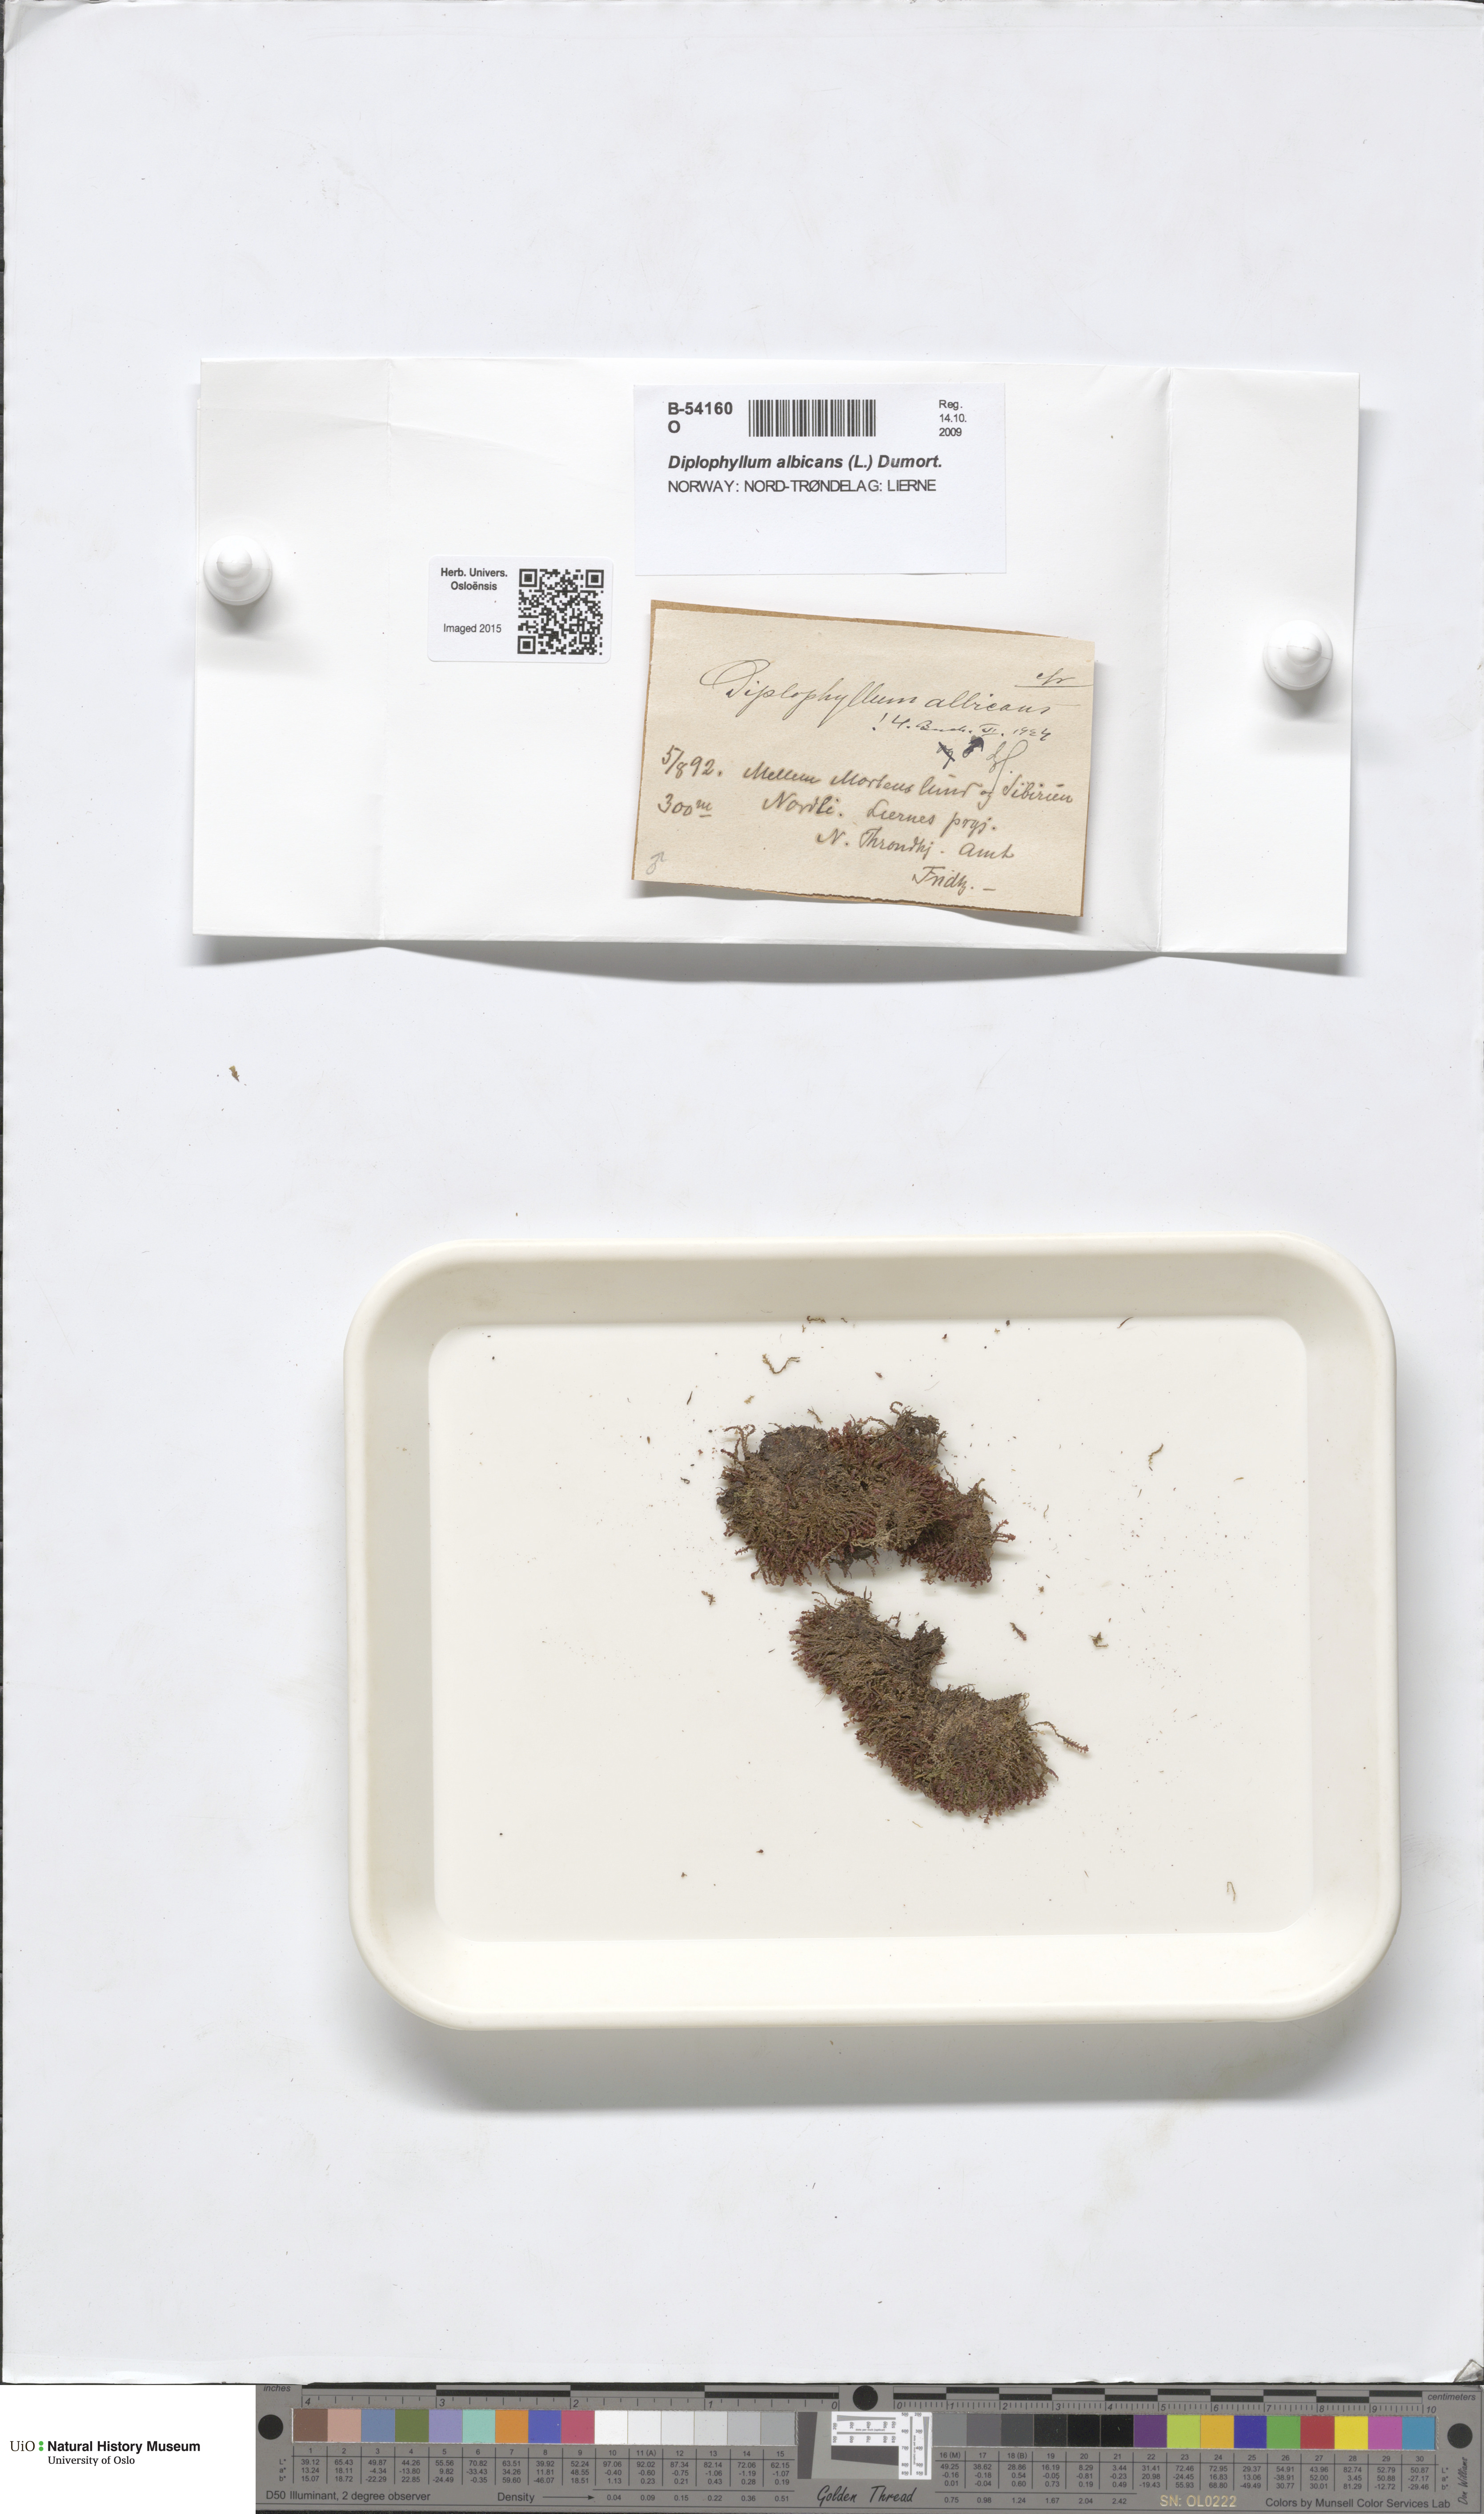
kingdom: Plantae
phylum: Marchantiophyta
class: Jungermanniopsida
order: Jungermanniales
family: Scapaniaceae
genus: Diplophyllum
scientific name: Diplophyllum albicans
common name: White earwort
